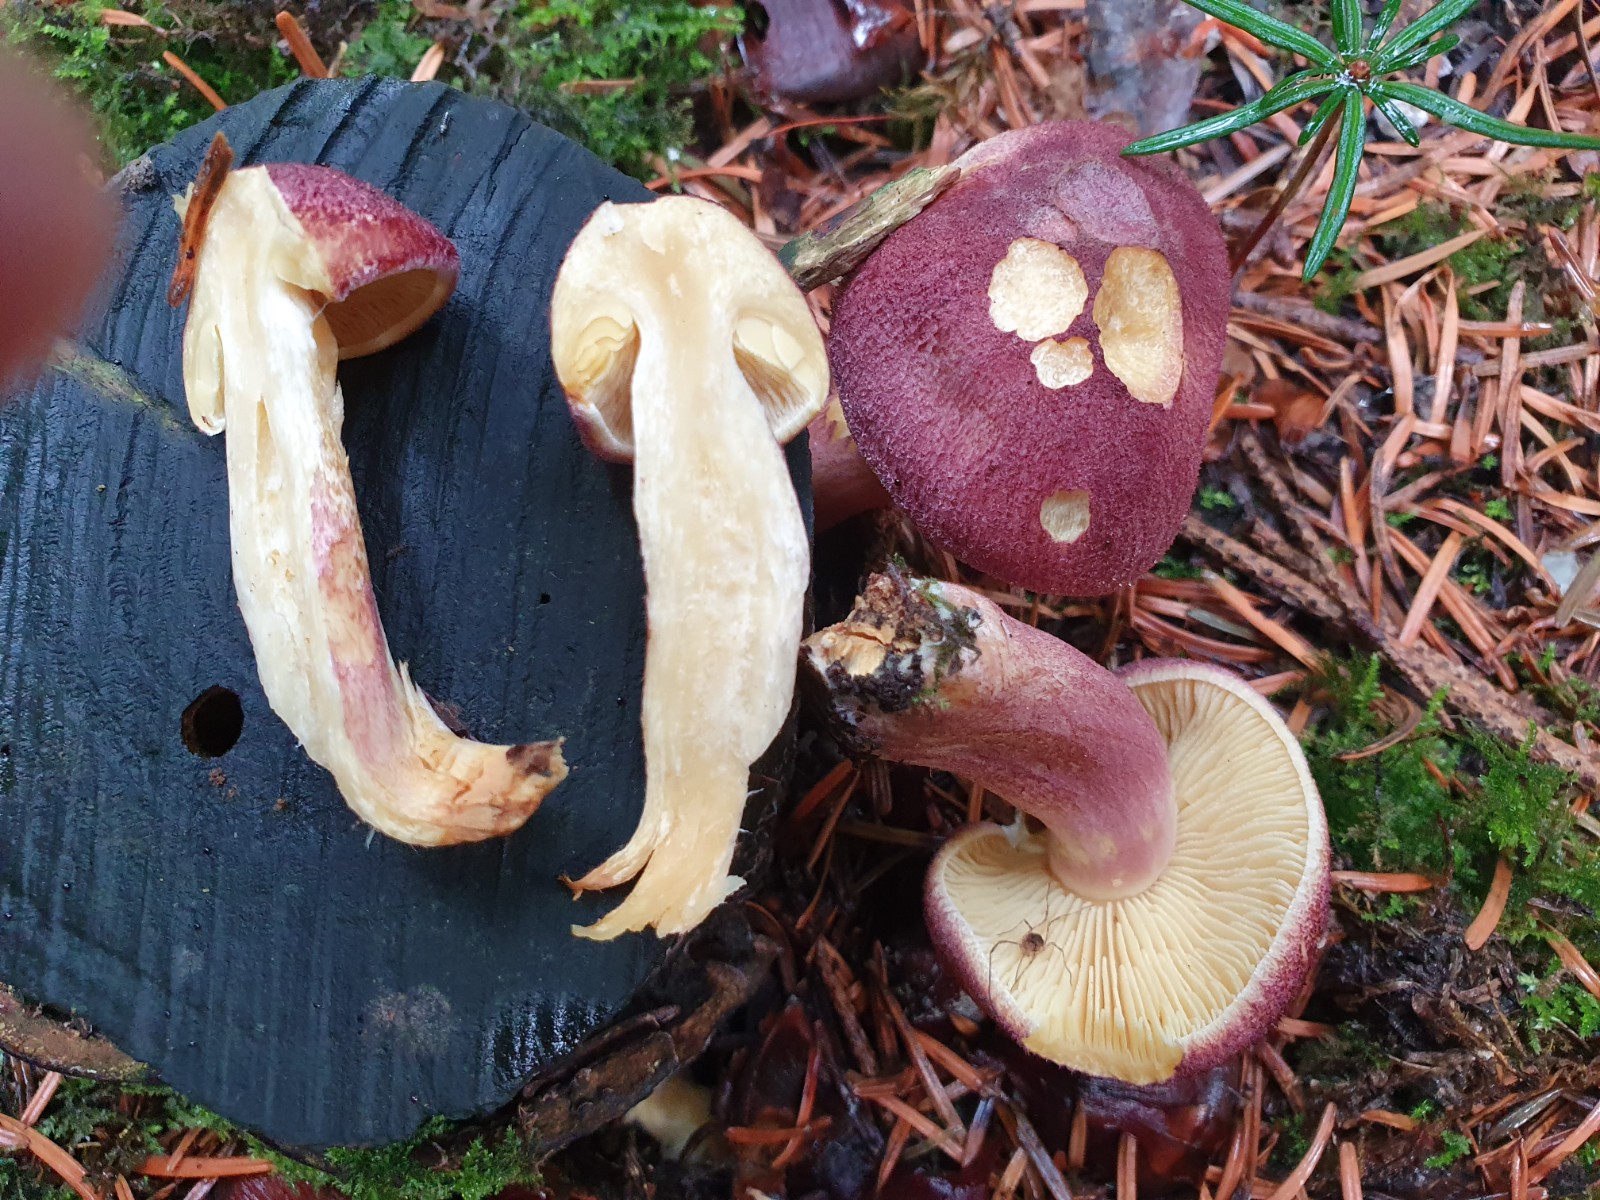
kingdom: Fungi
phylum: Basidiomycota
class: Agaricomycetes
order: Agaricales
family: Tricholomataceae
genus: Tricholomopsis
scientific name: Tricholomopsis rutilans
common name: purpur-væbnerhat
